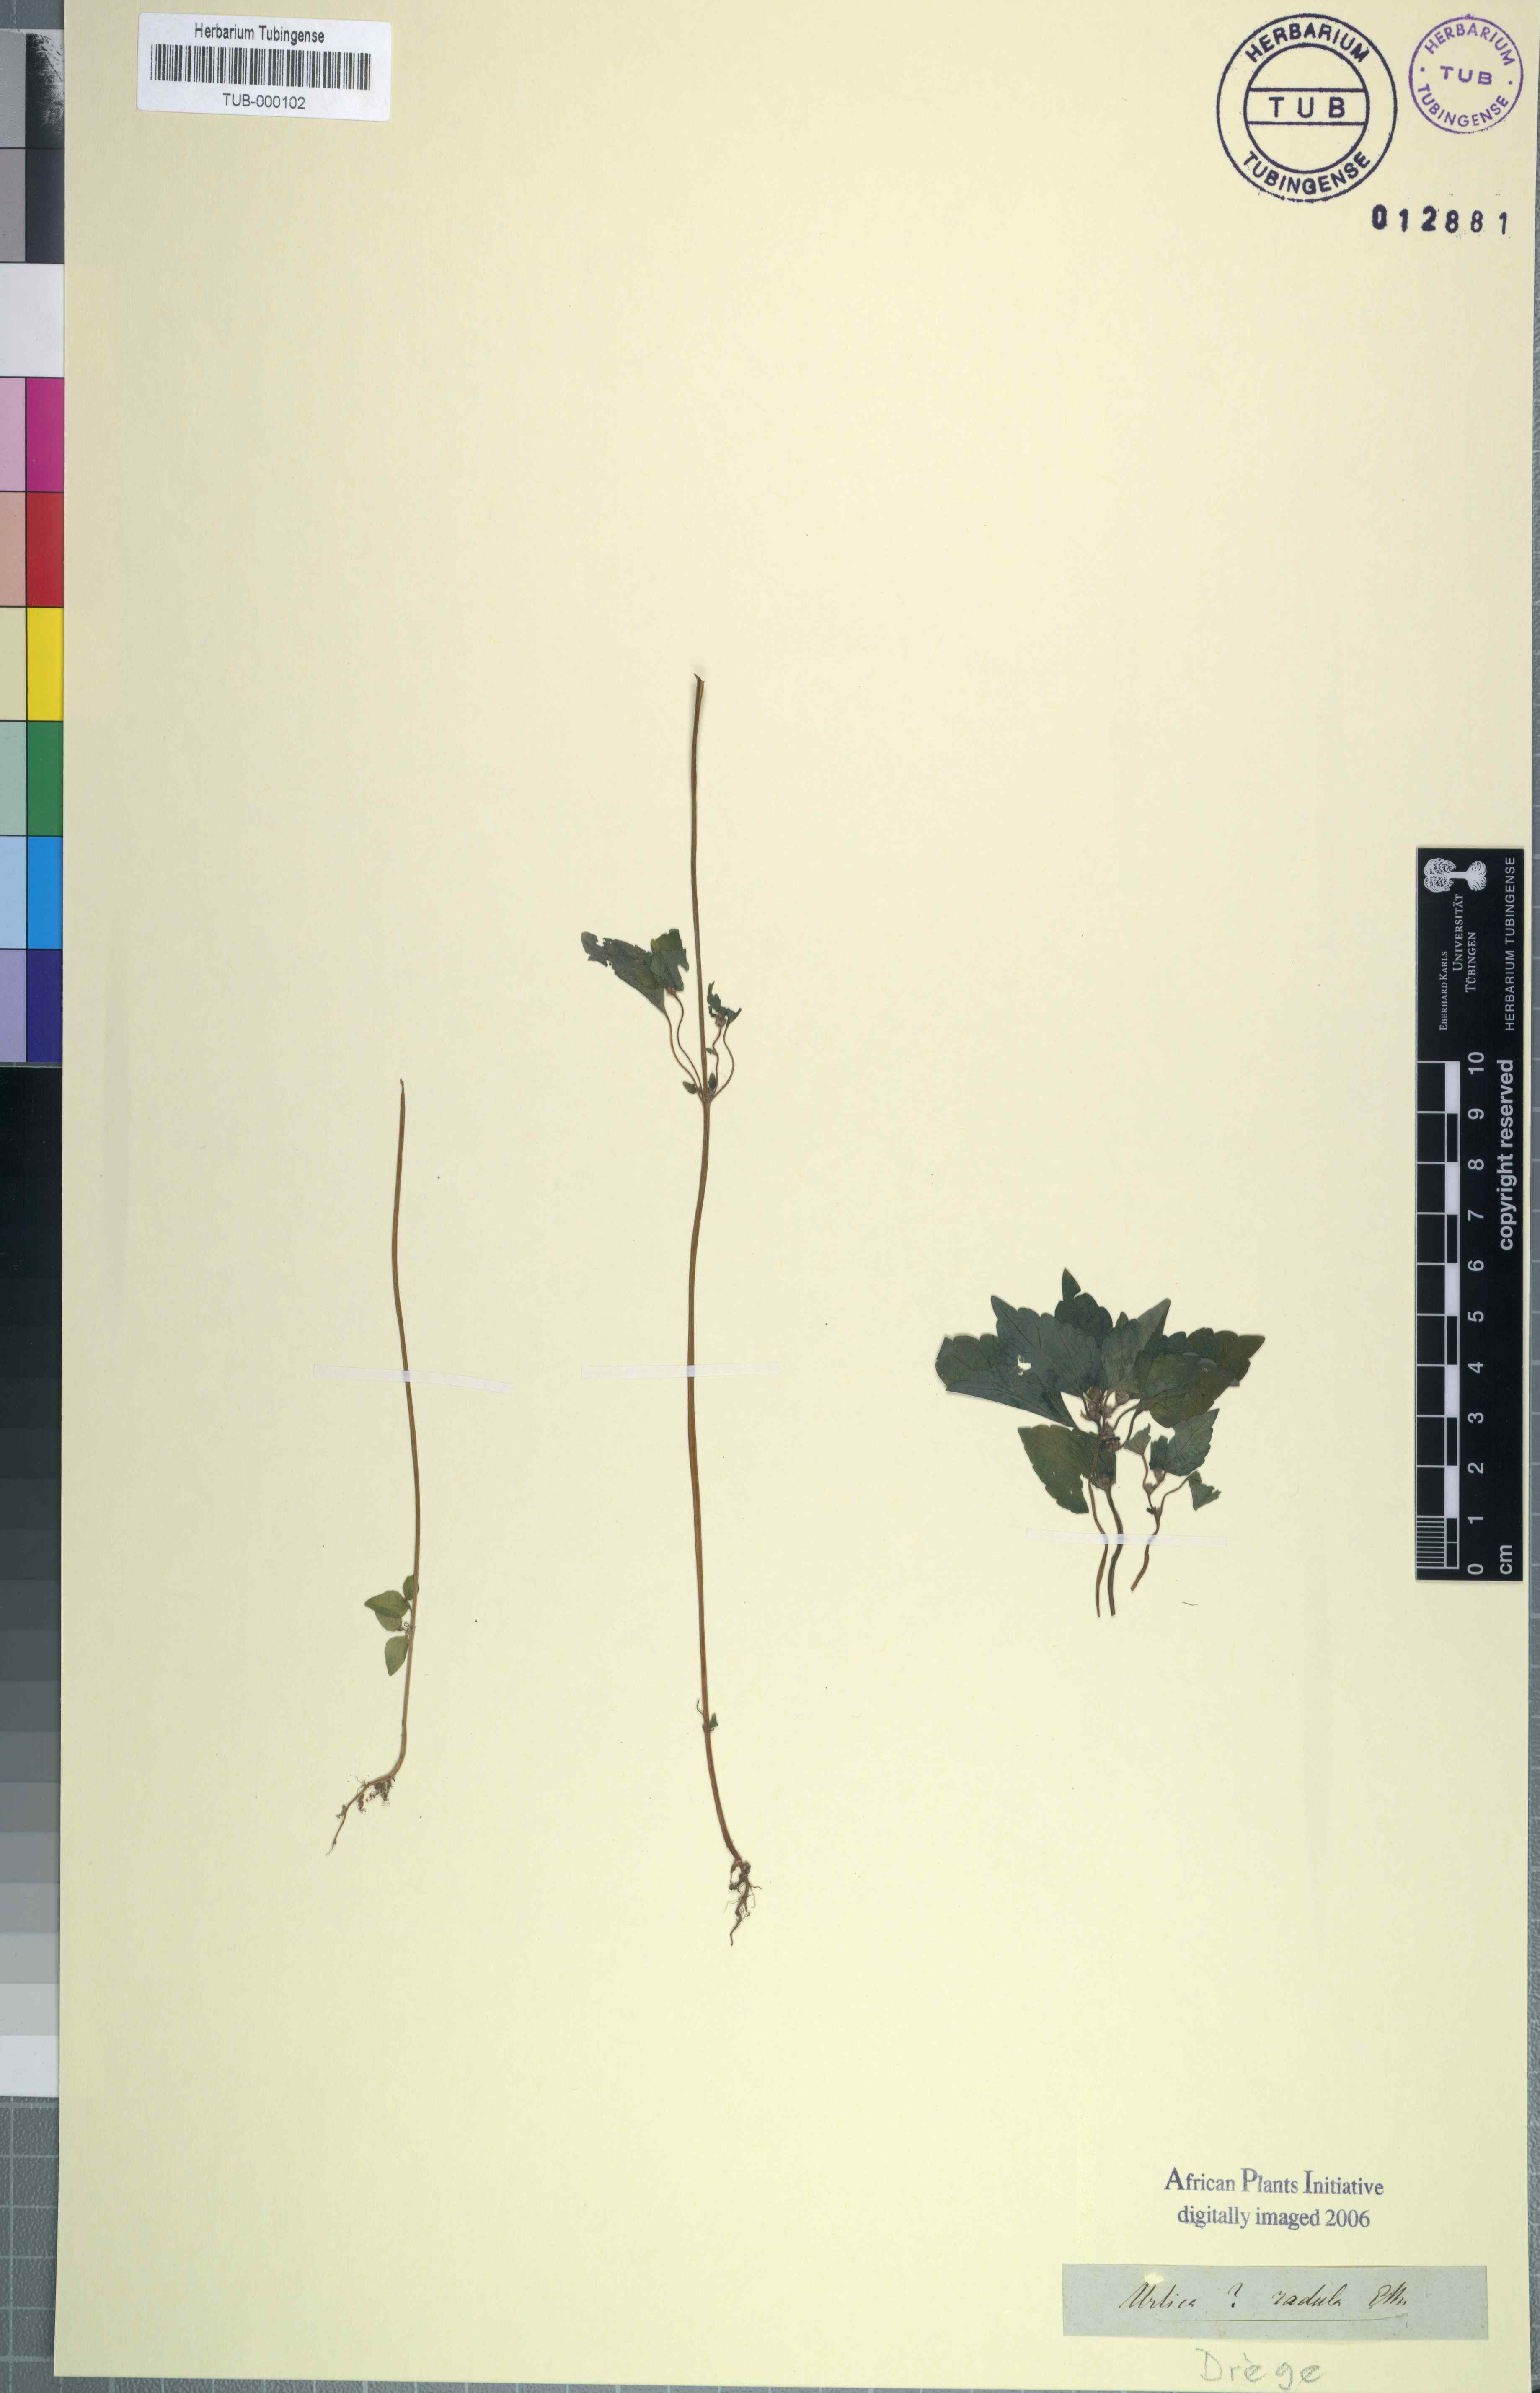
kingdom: Plantae
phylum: Tracheophyta
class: Magnoliopsida
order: Rosales
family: Urticaceae
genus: Didymodoxa
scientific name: Didymodoxa capensis
